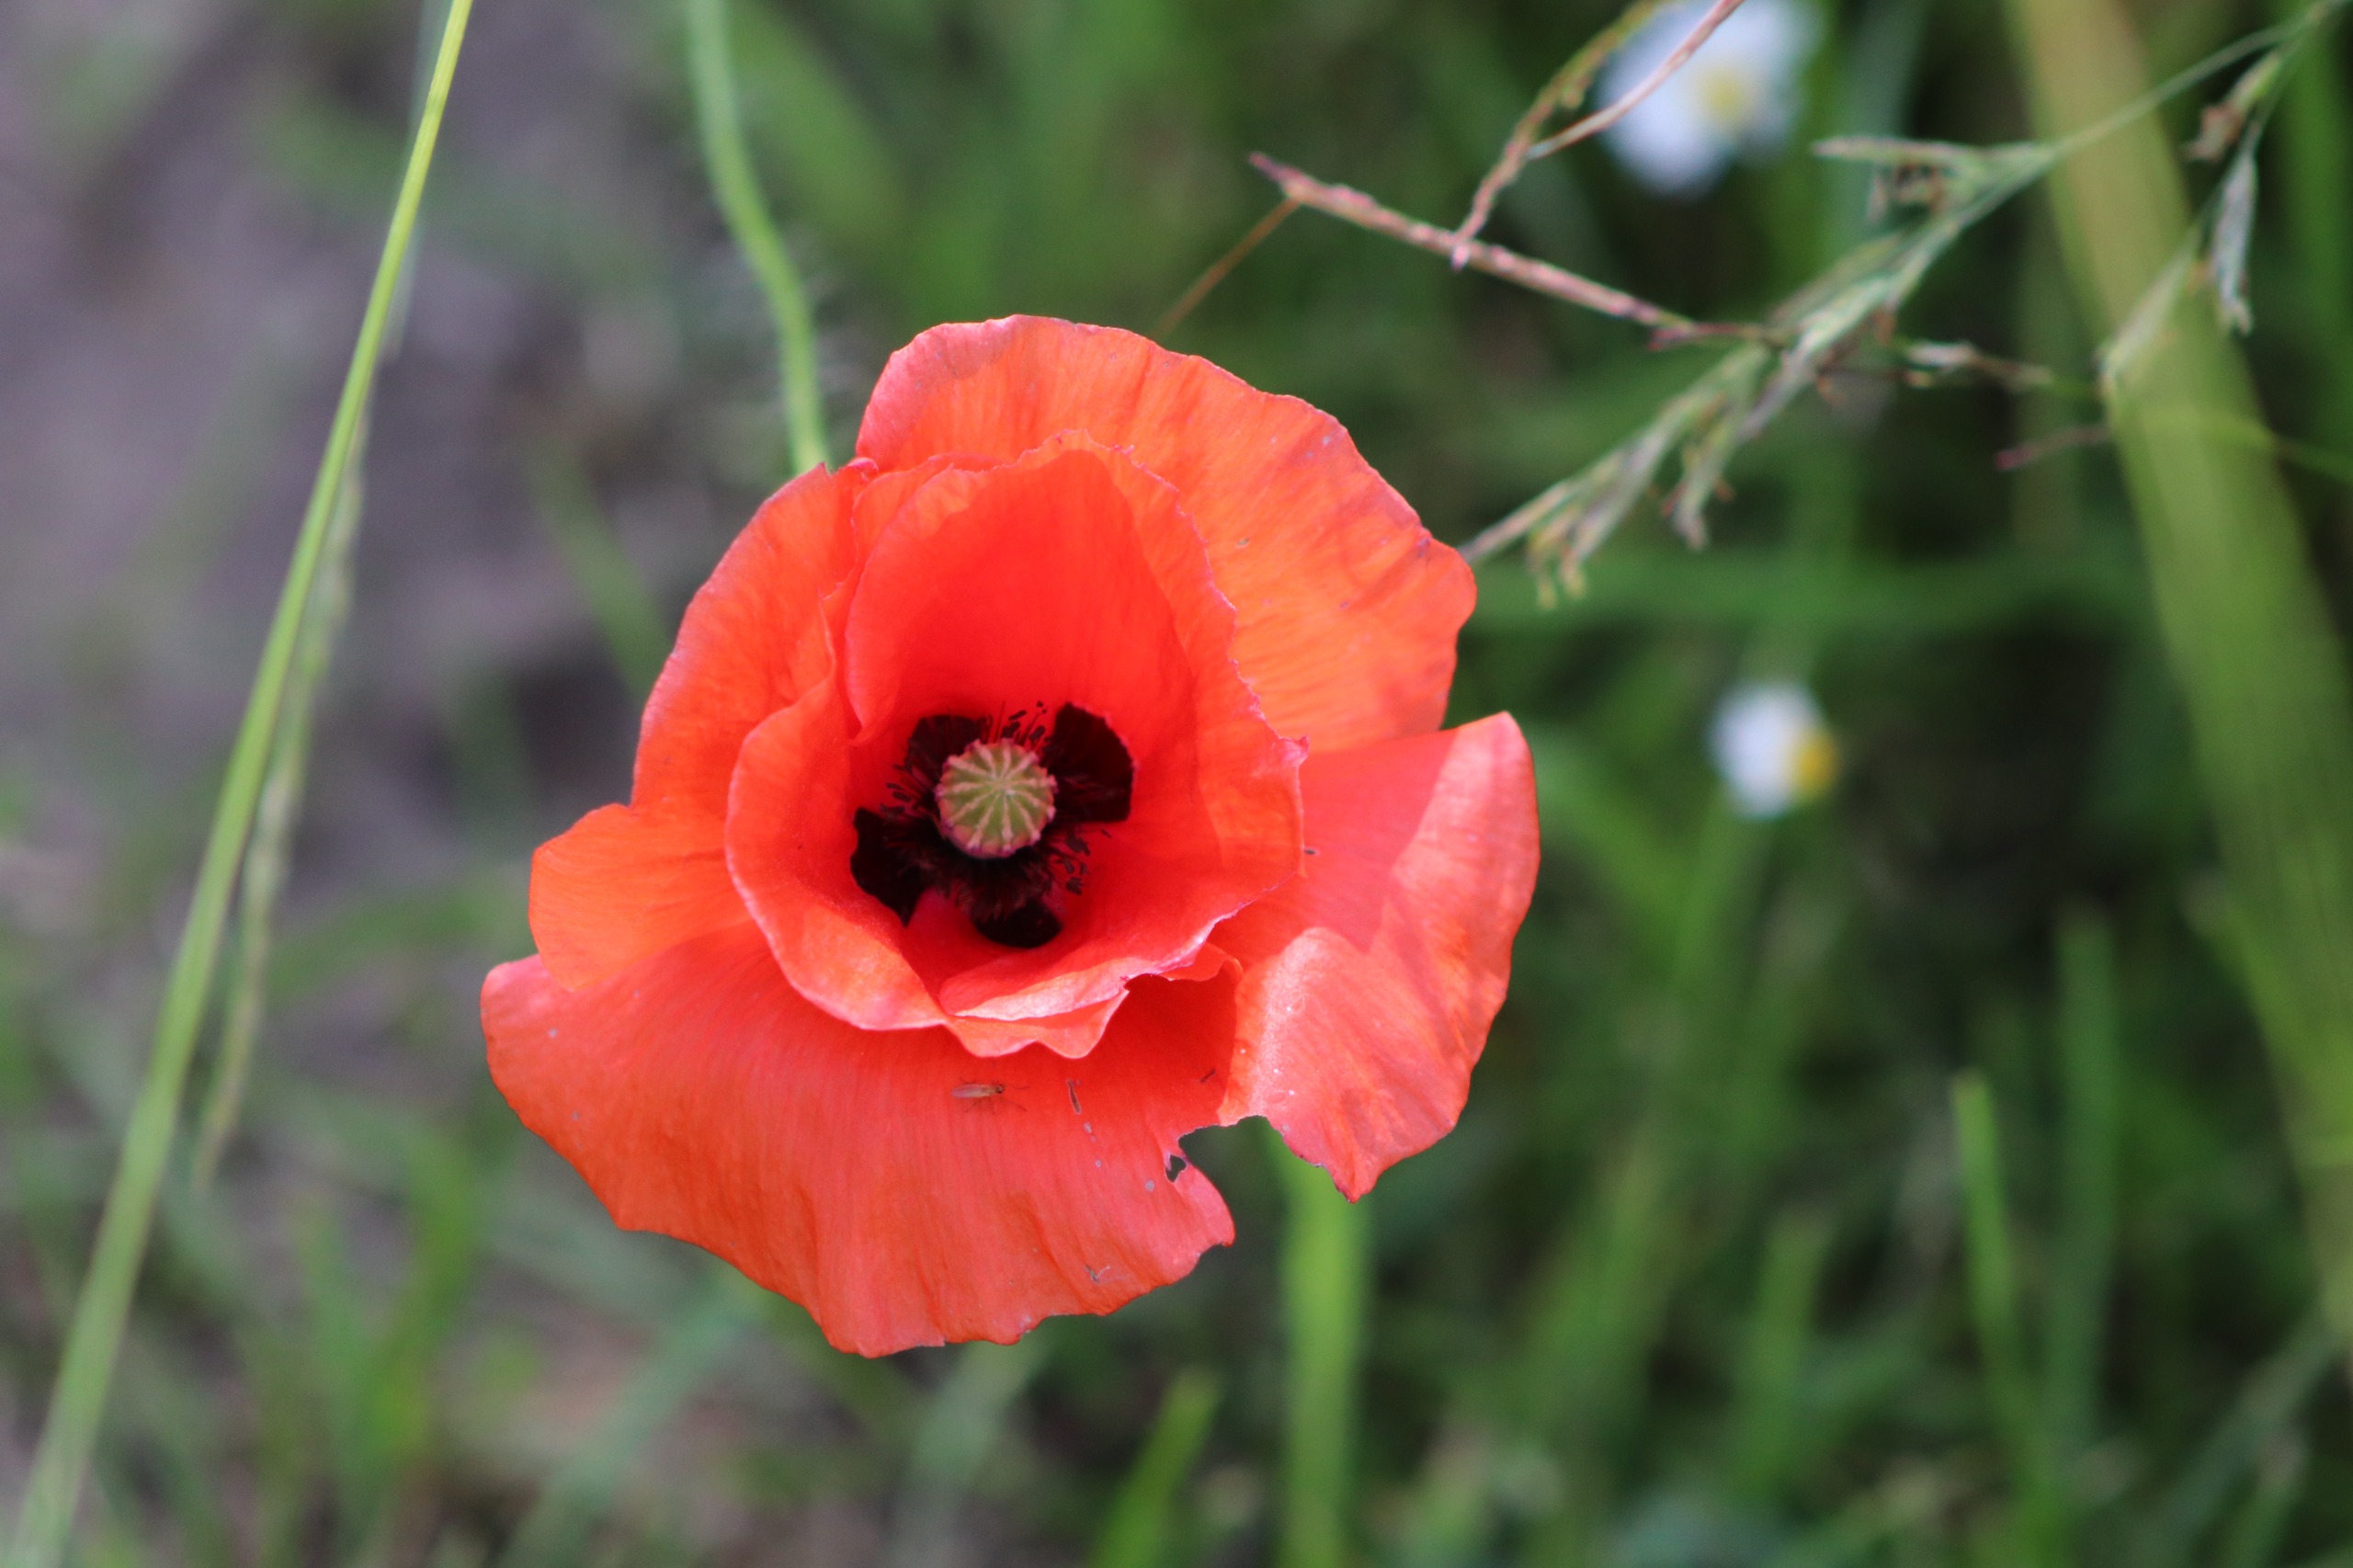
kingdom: Plantae
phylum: Tracheophyta
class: Magnoliopsida
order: Ranunculales
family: Papaveraceae
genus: Papaver
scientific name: Papaver rhoeas
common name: Korn-valmue
